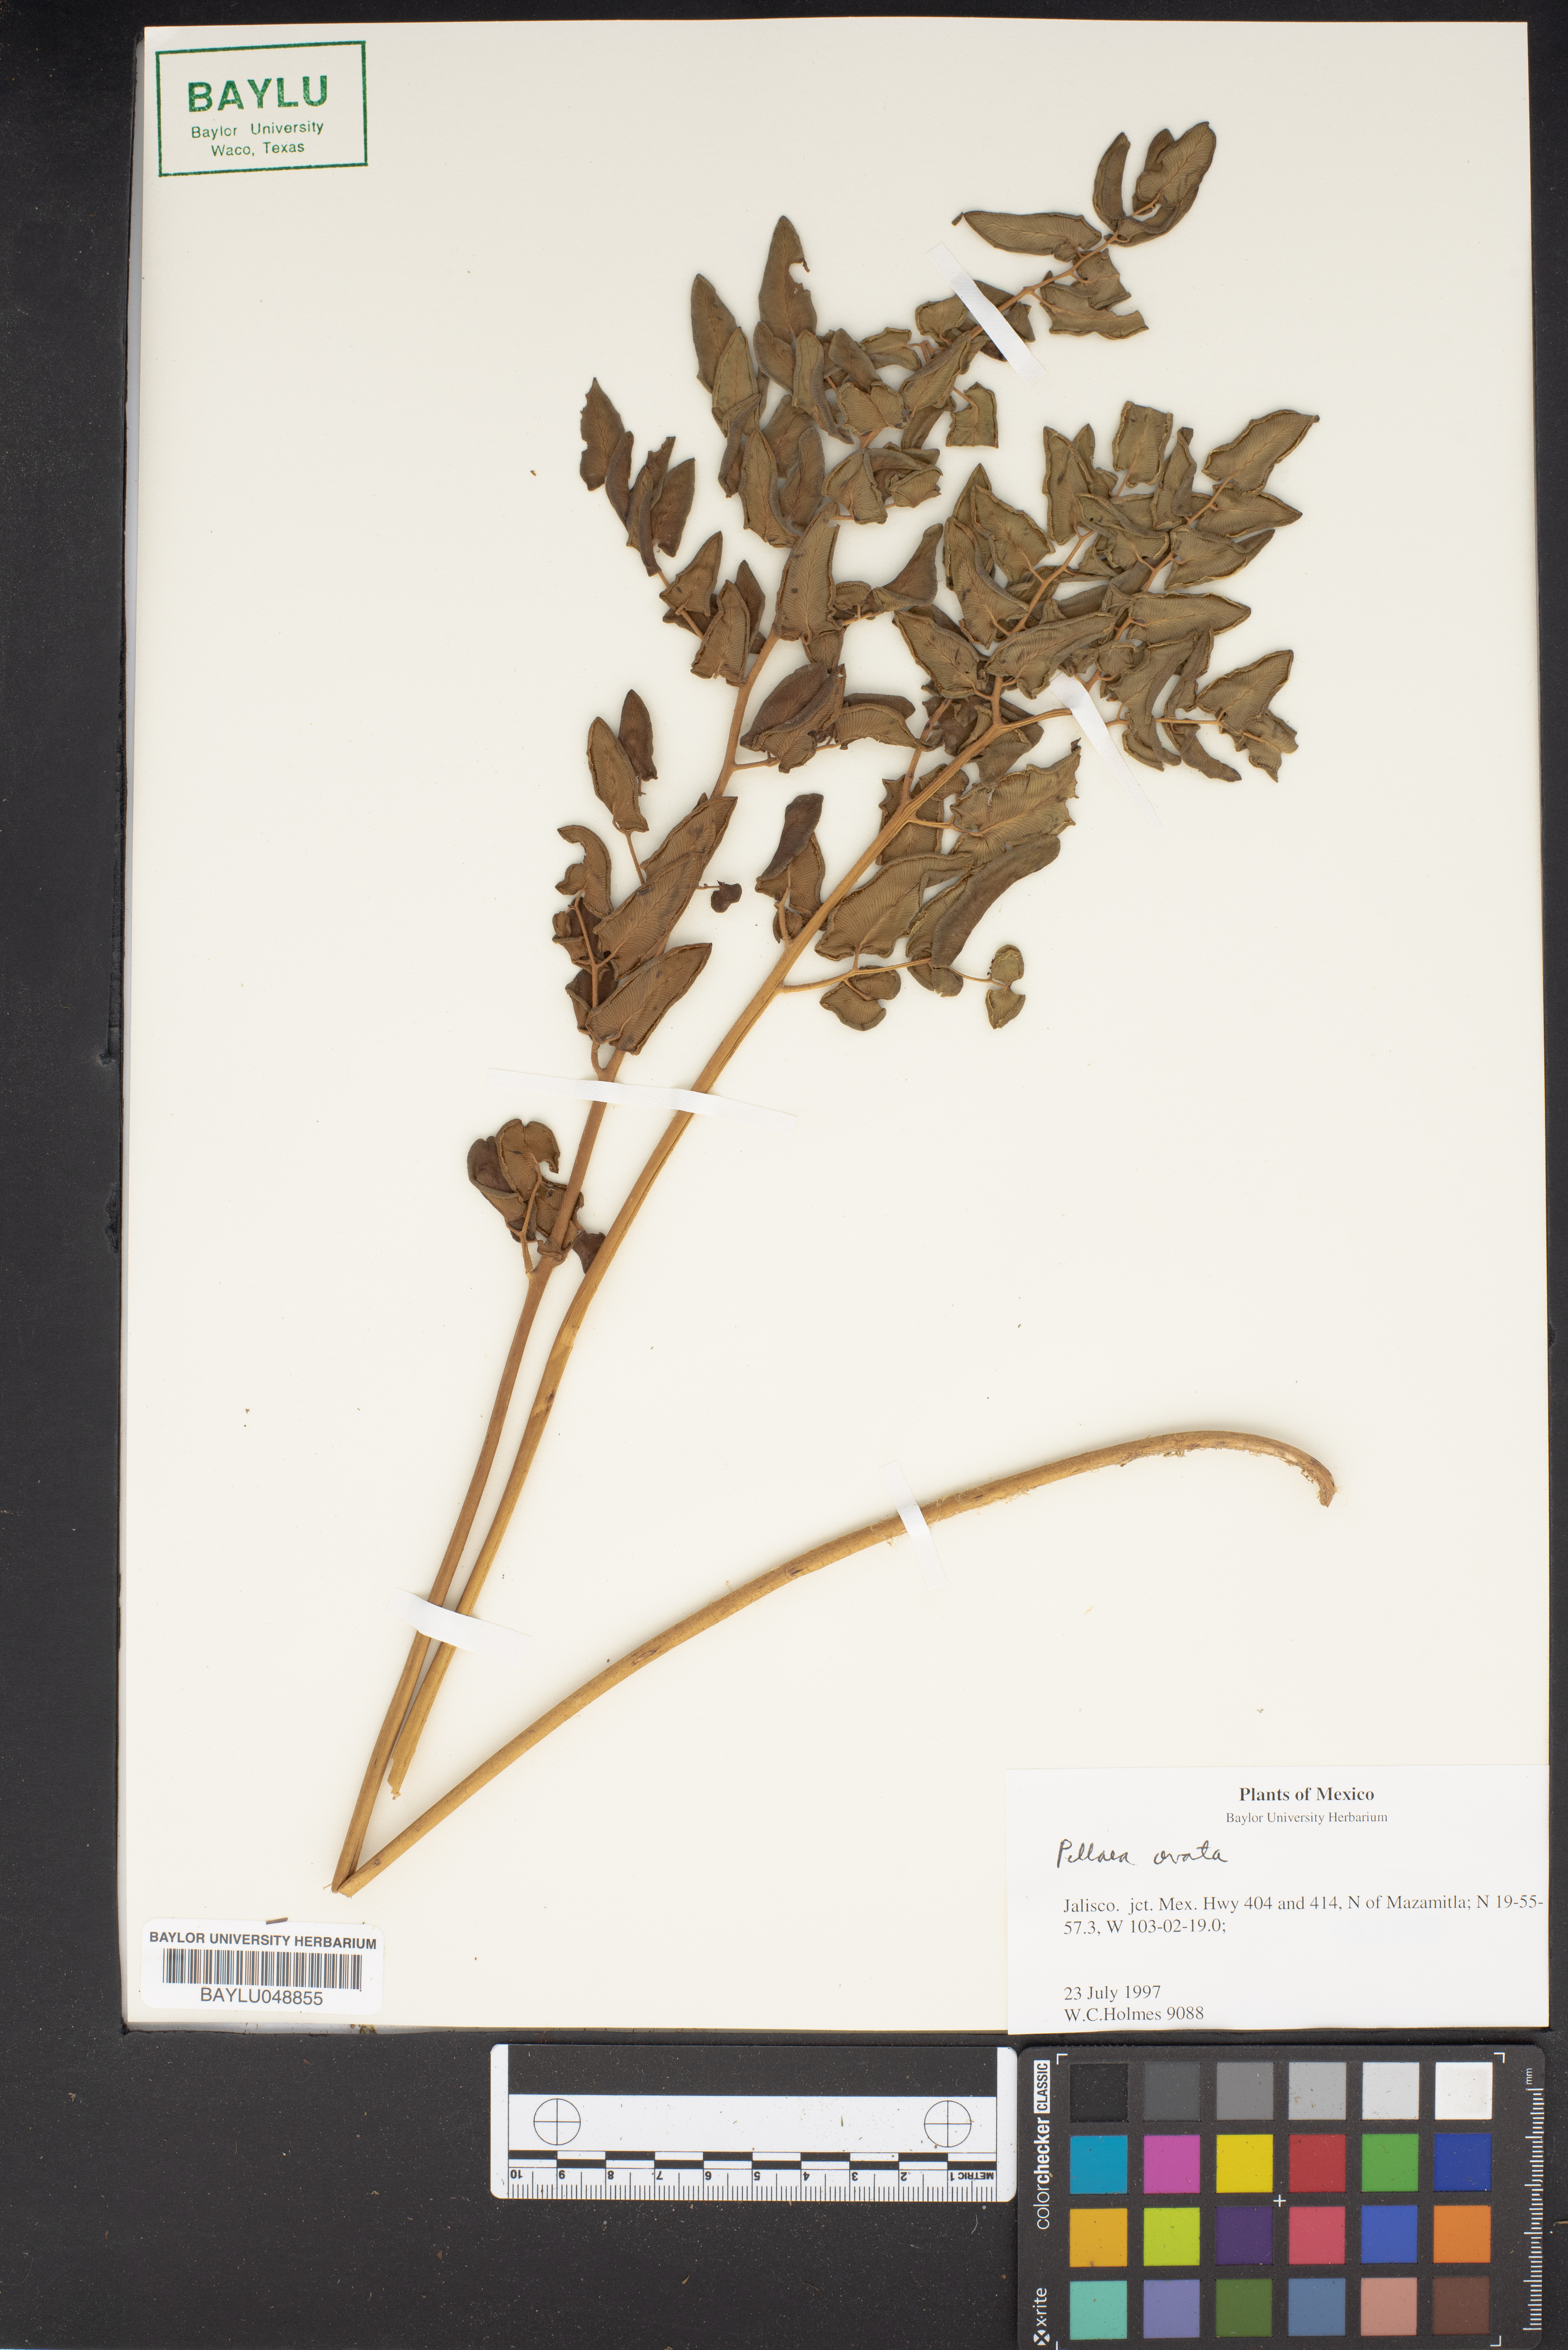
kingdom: Plantae
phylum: Tracheophyta
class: Polypodiopsida
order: Polypodiales
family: Pteridaceae
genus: Pellaea
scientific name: Pellaea ovata
